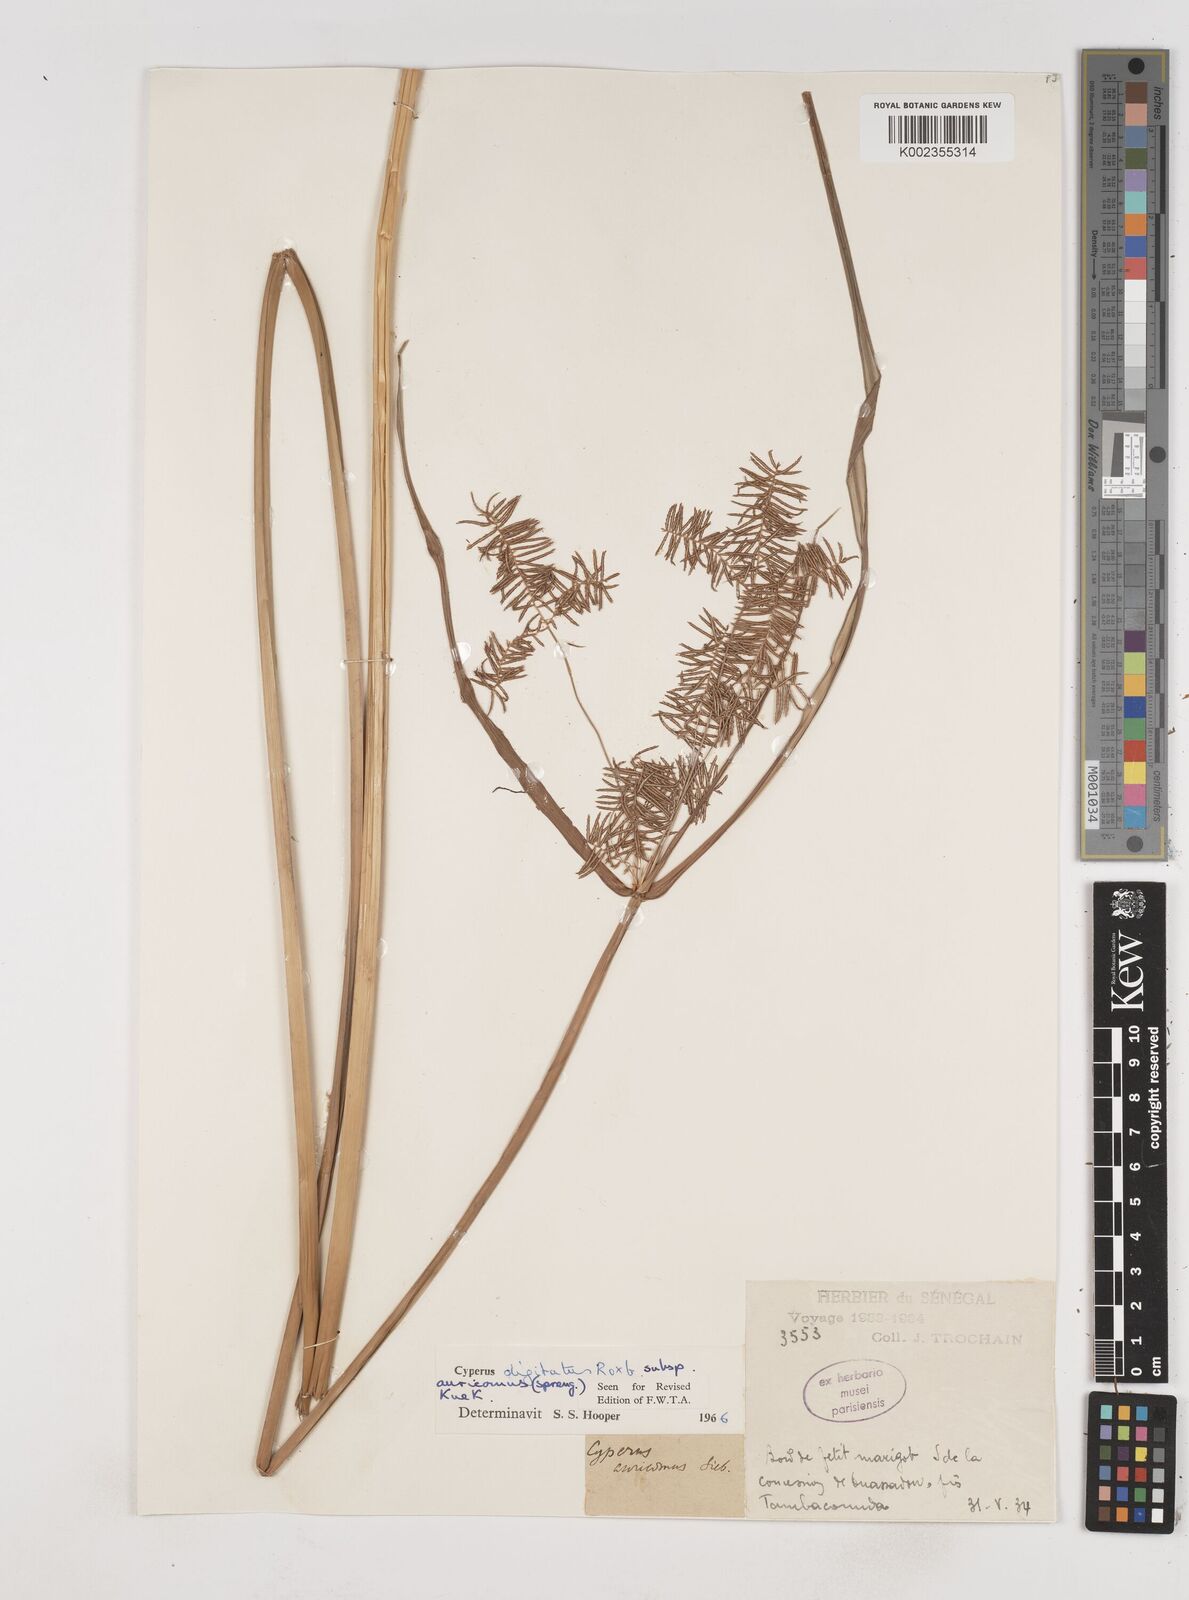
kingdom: Plantae
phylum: Tracheophyta
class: Liliopsida
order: Poales
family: Cyperaceae
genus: Cyperus
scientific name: Cyperus digitatus
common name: Finger flatsedge
